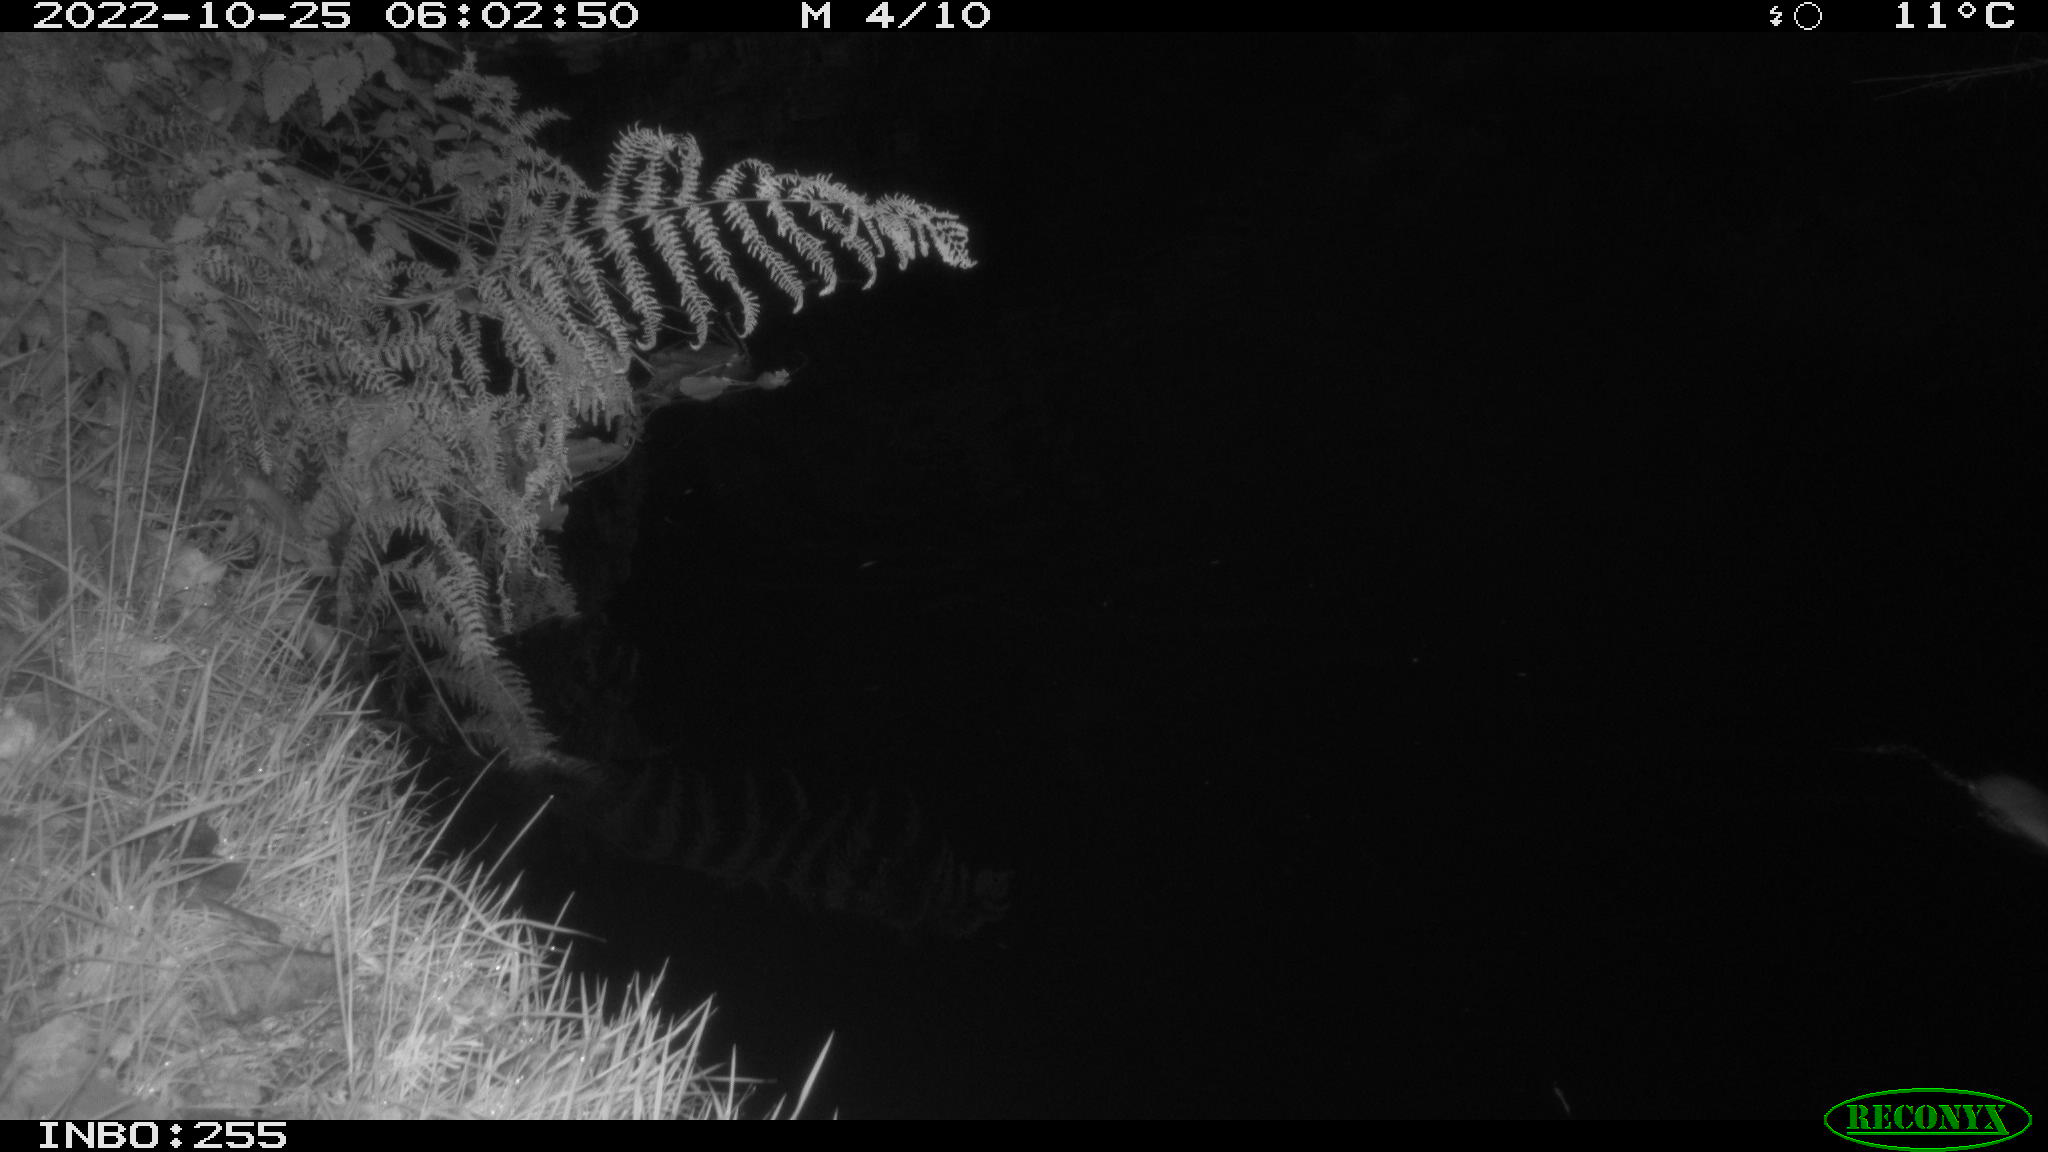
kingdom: Animalia
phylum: Chordata
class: Mammalia
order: Rodentia
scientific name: Rodentia
